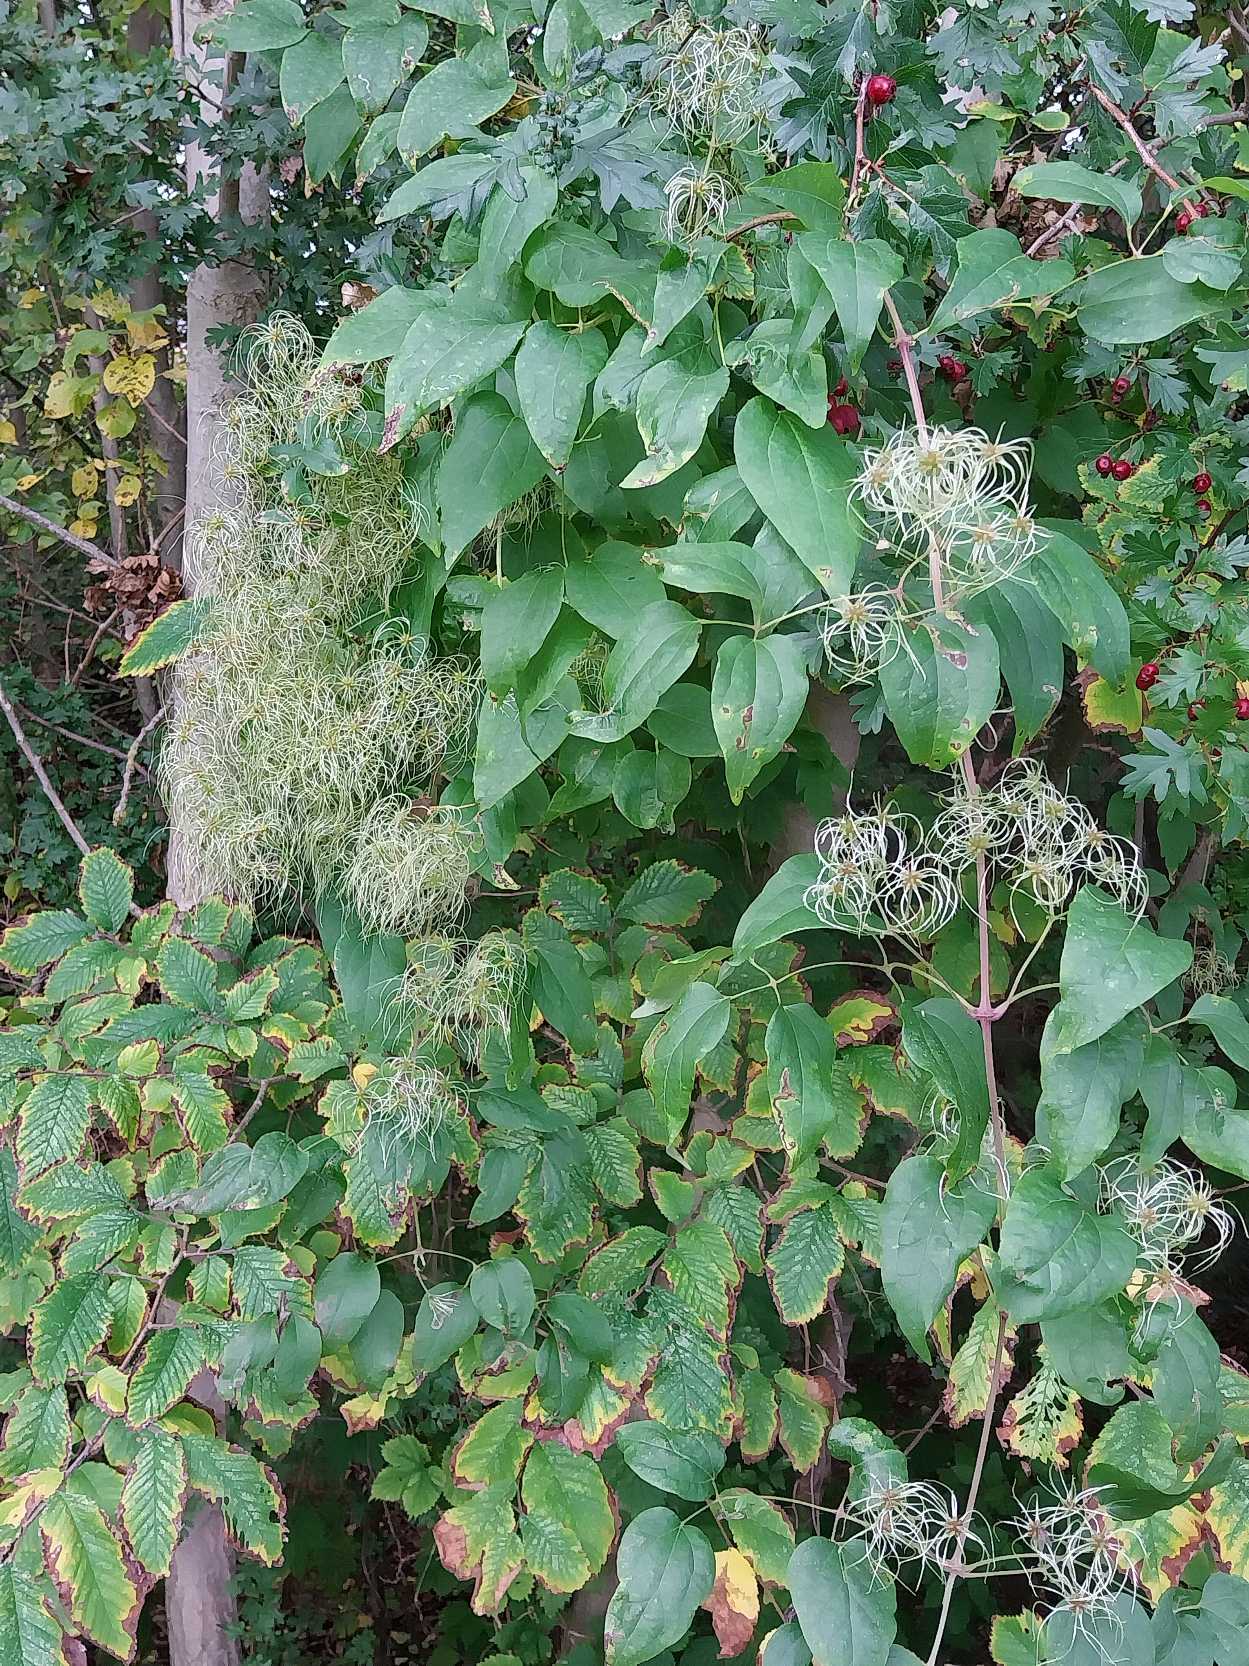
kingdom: Plantae
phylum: Tracheophyta
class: Magnoliopsida
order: Ranunculales
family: Ranunculaceae
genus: Clematis
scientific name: Clematis vitalba
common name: Skovranke
